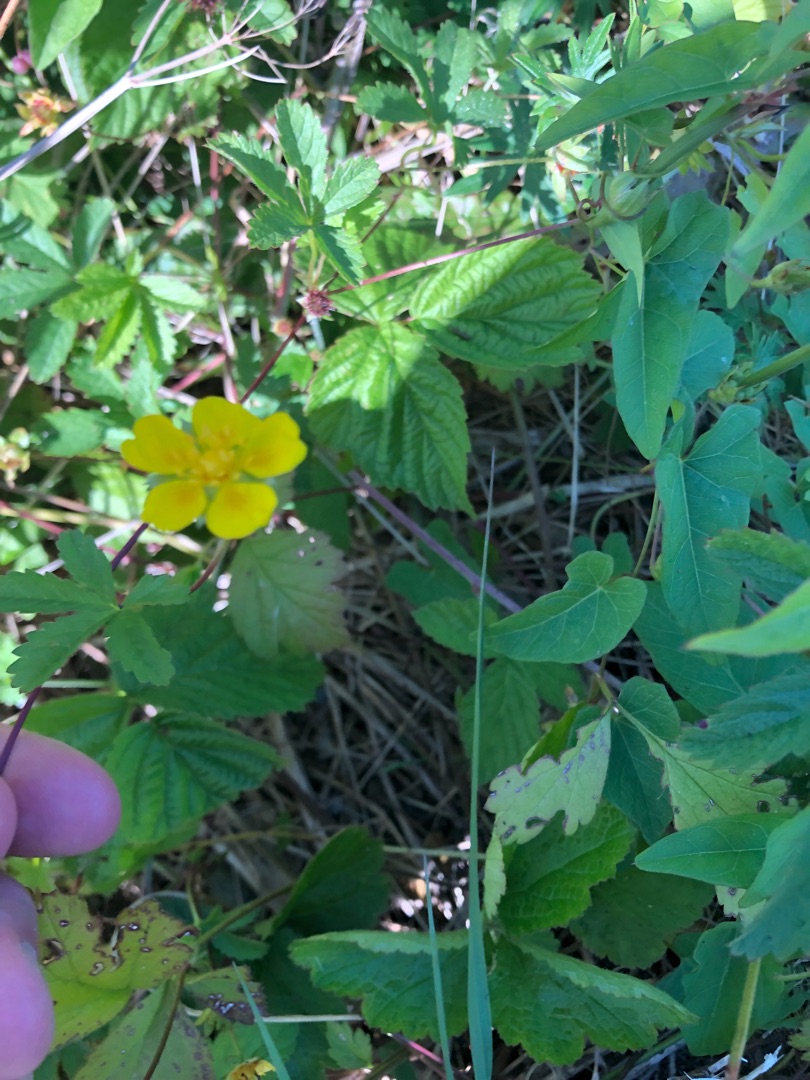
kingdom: Plantae
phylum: Tracheophyta
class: Magnoliopsida
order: Rosales
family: Rosaceae
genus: Potentilla
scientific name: Potentilla reptans
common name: Krybende potentil
